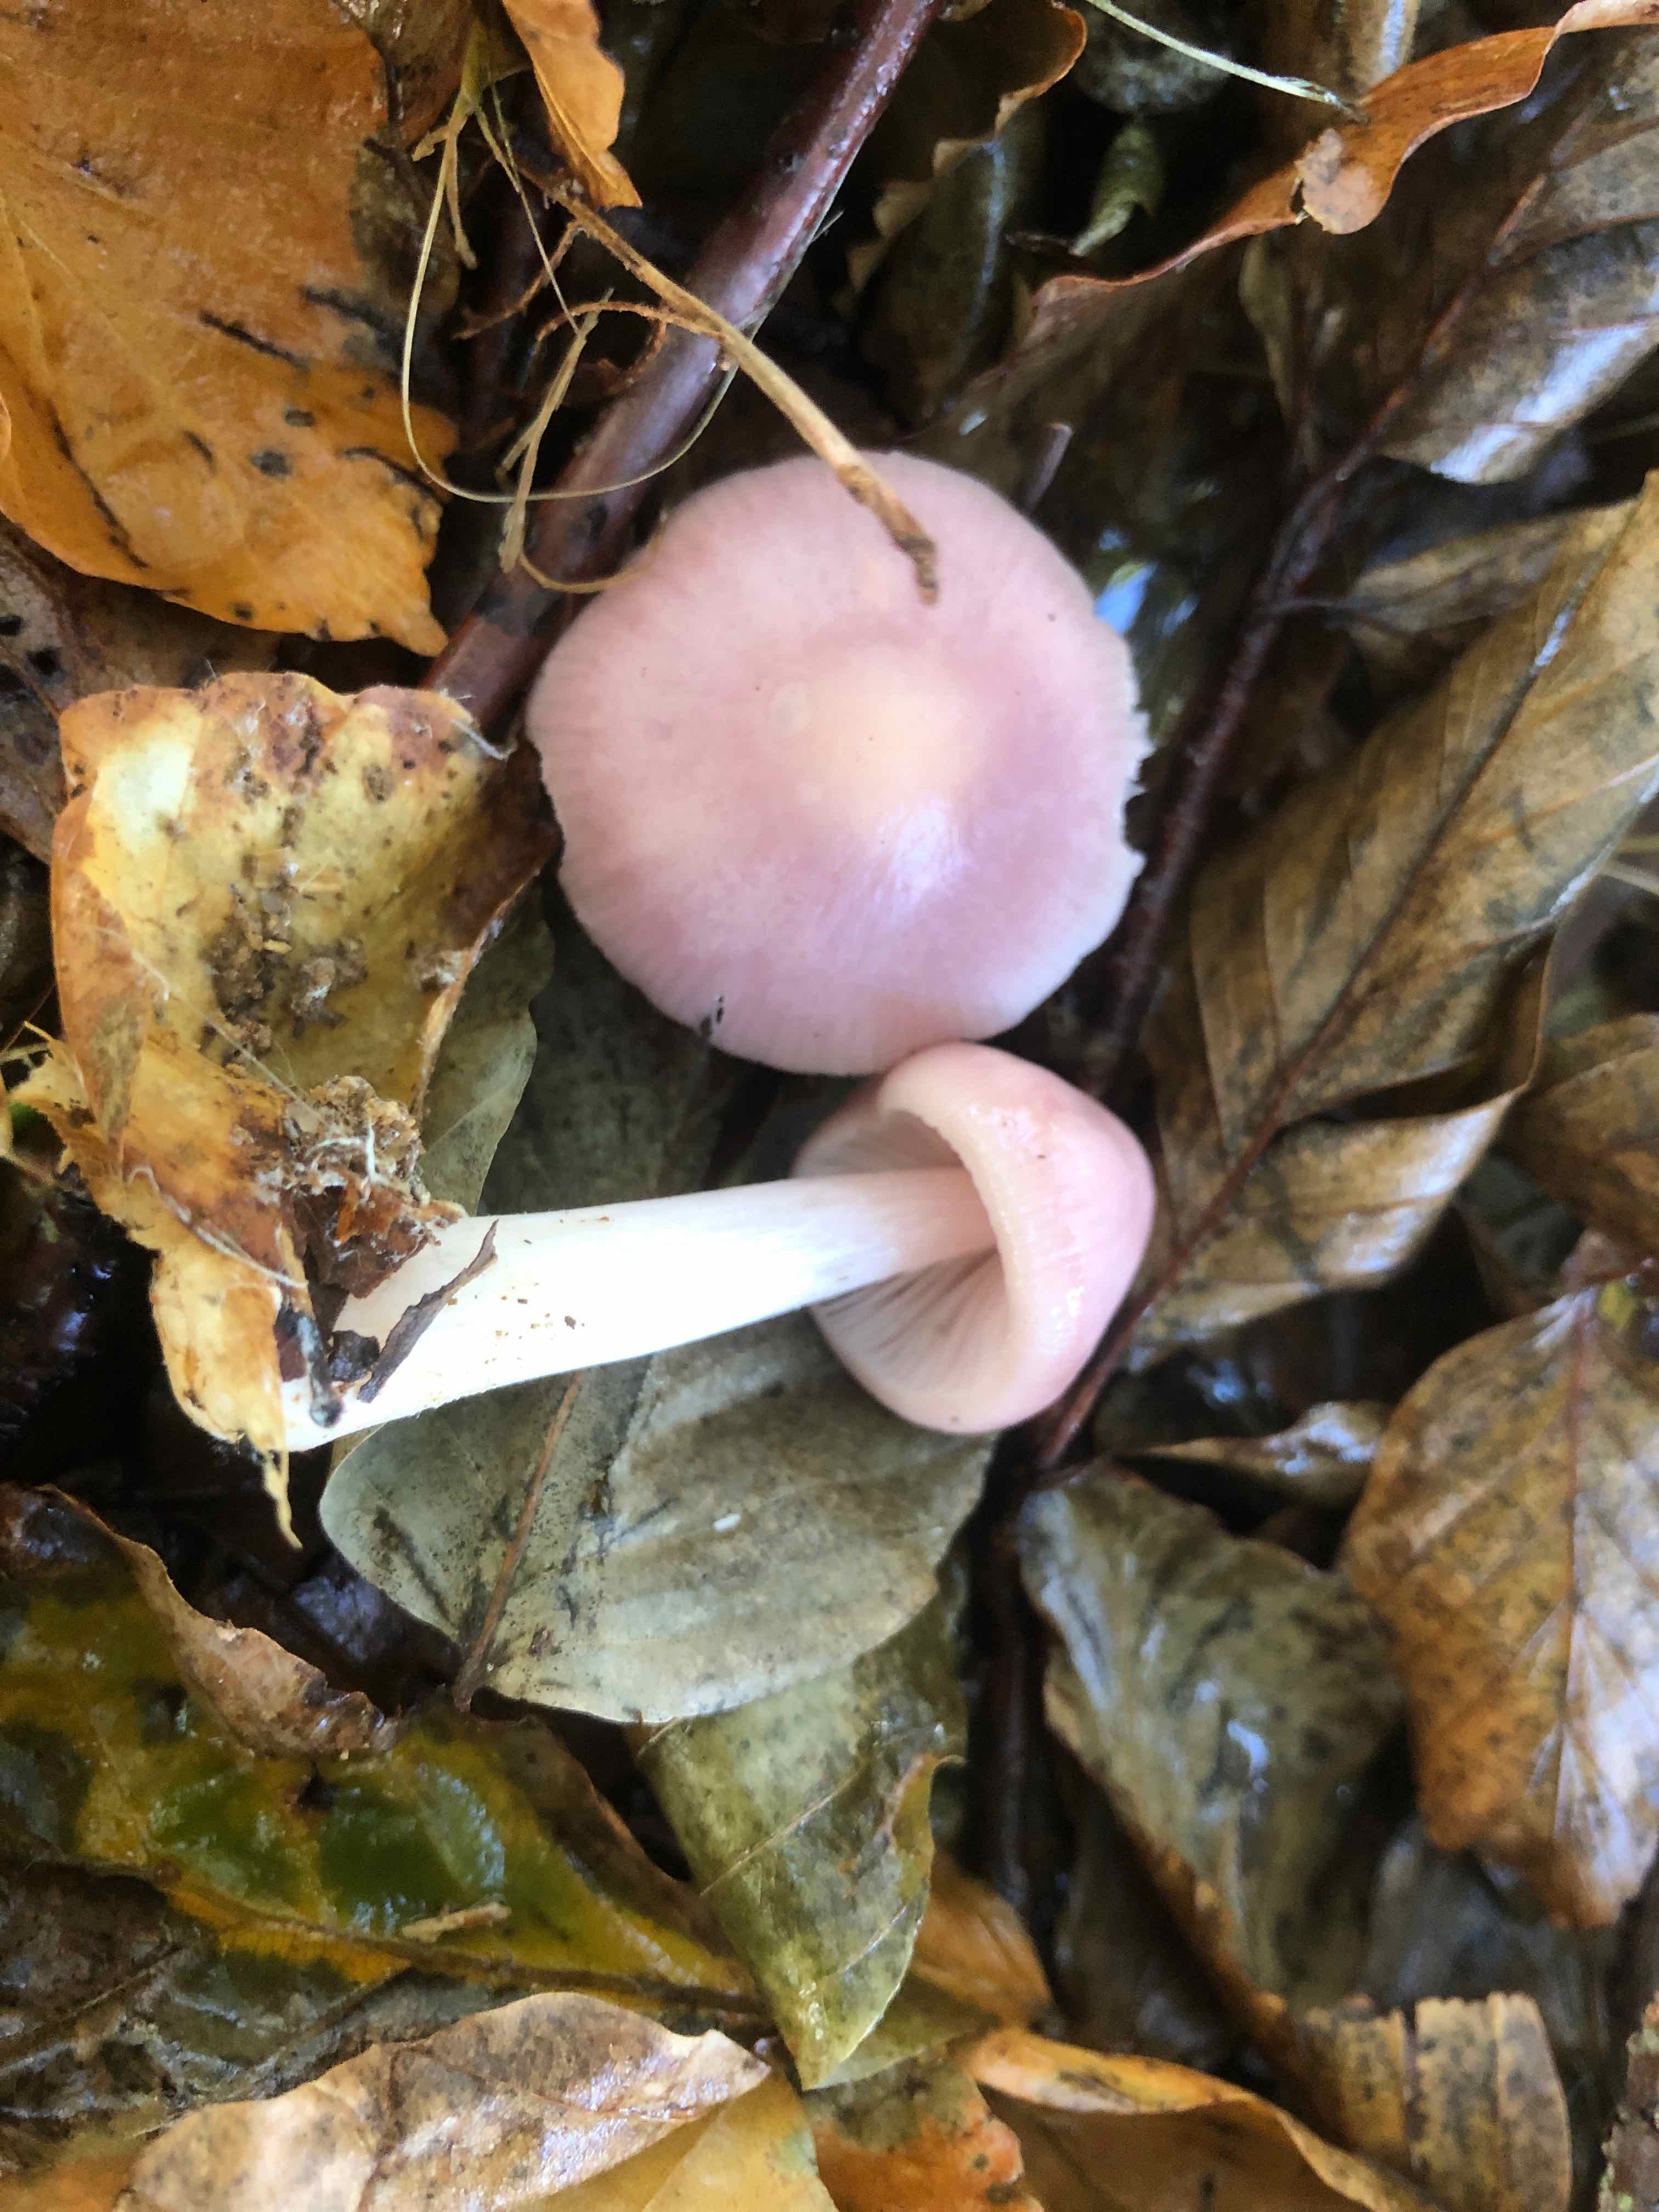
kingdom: Fungi
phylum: Basidiomycota
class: Agaricomycetes
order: Agaricales
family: Mycenaceae
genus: Mycena
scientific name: Mycena rosea
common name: rosa huesvamp
